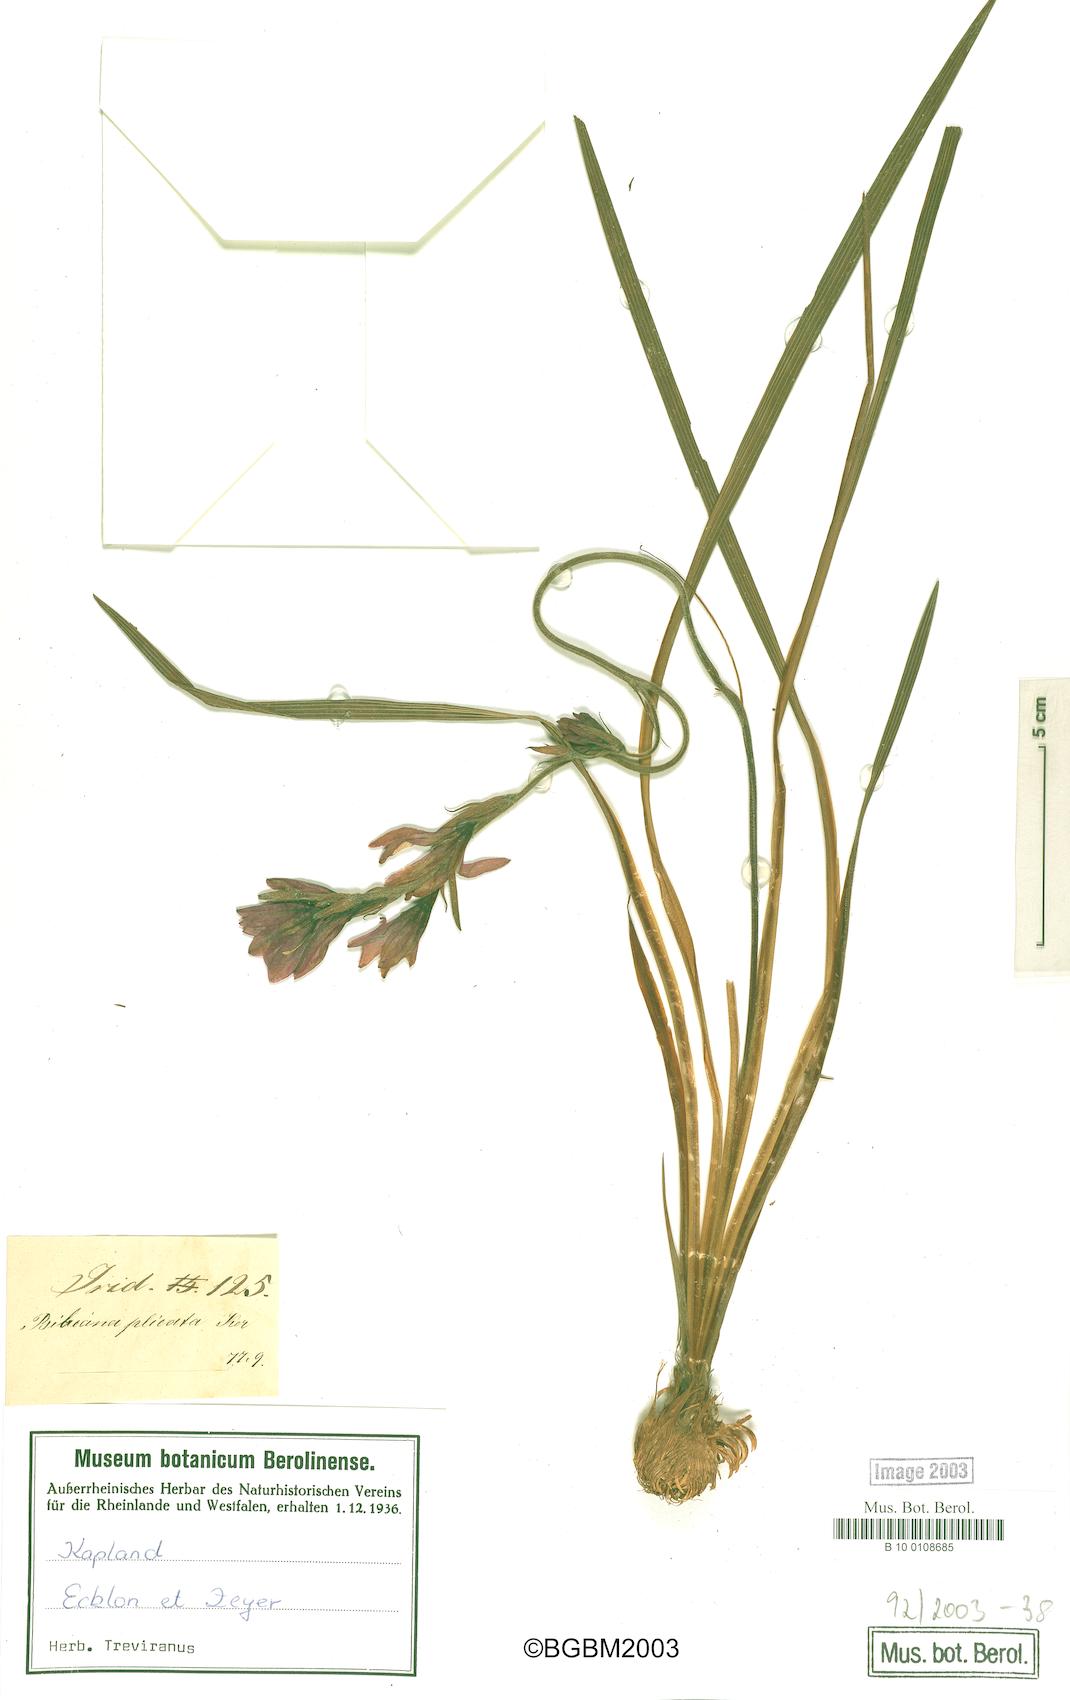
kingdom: Plantae
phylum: Tracheophyta
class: Liliopsida
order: Asparagales
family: Iridaceae
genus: Babiana
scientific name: Babiana fragrans
